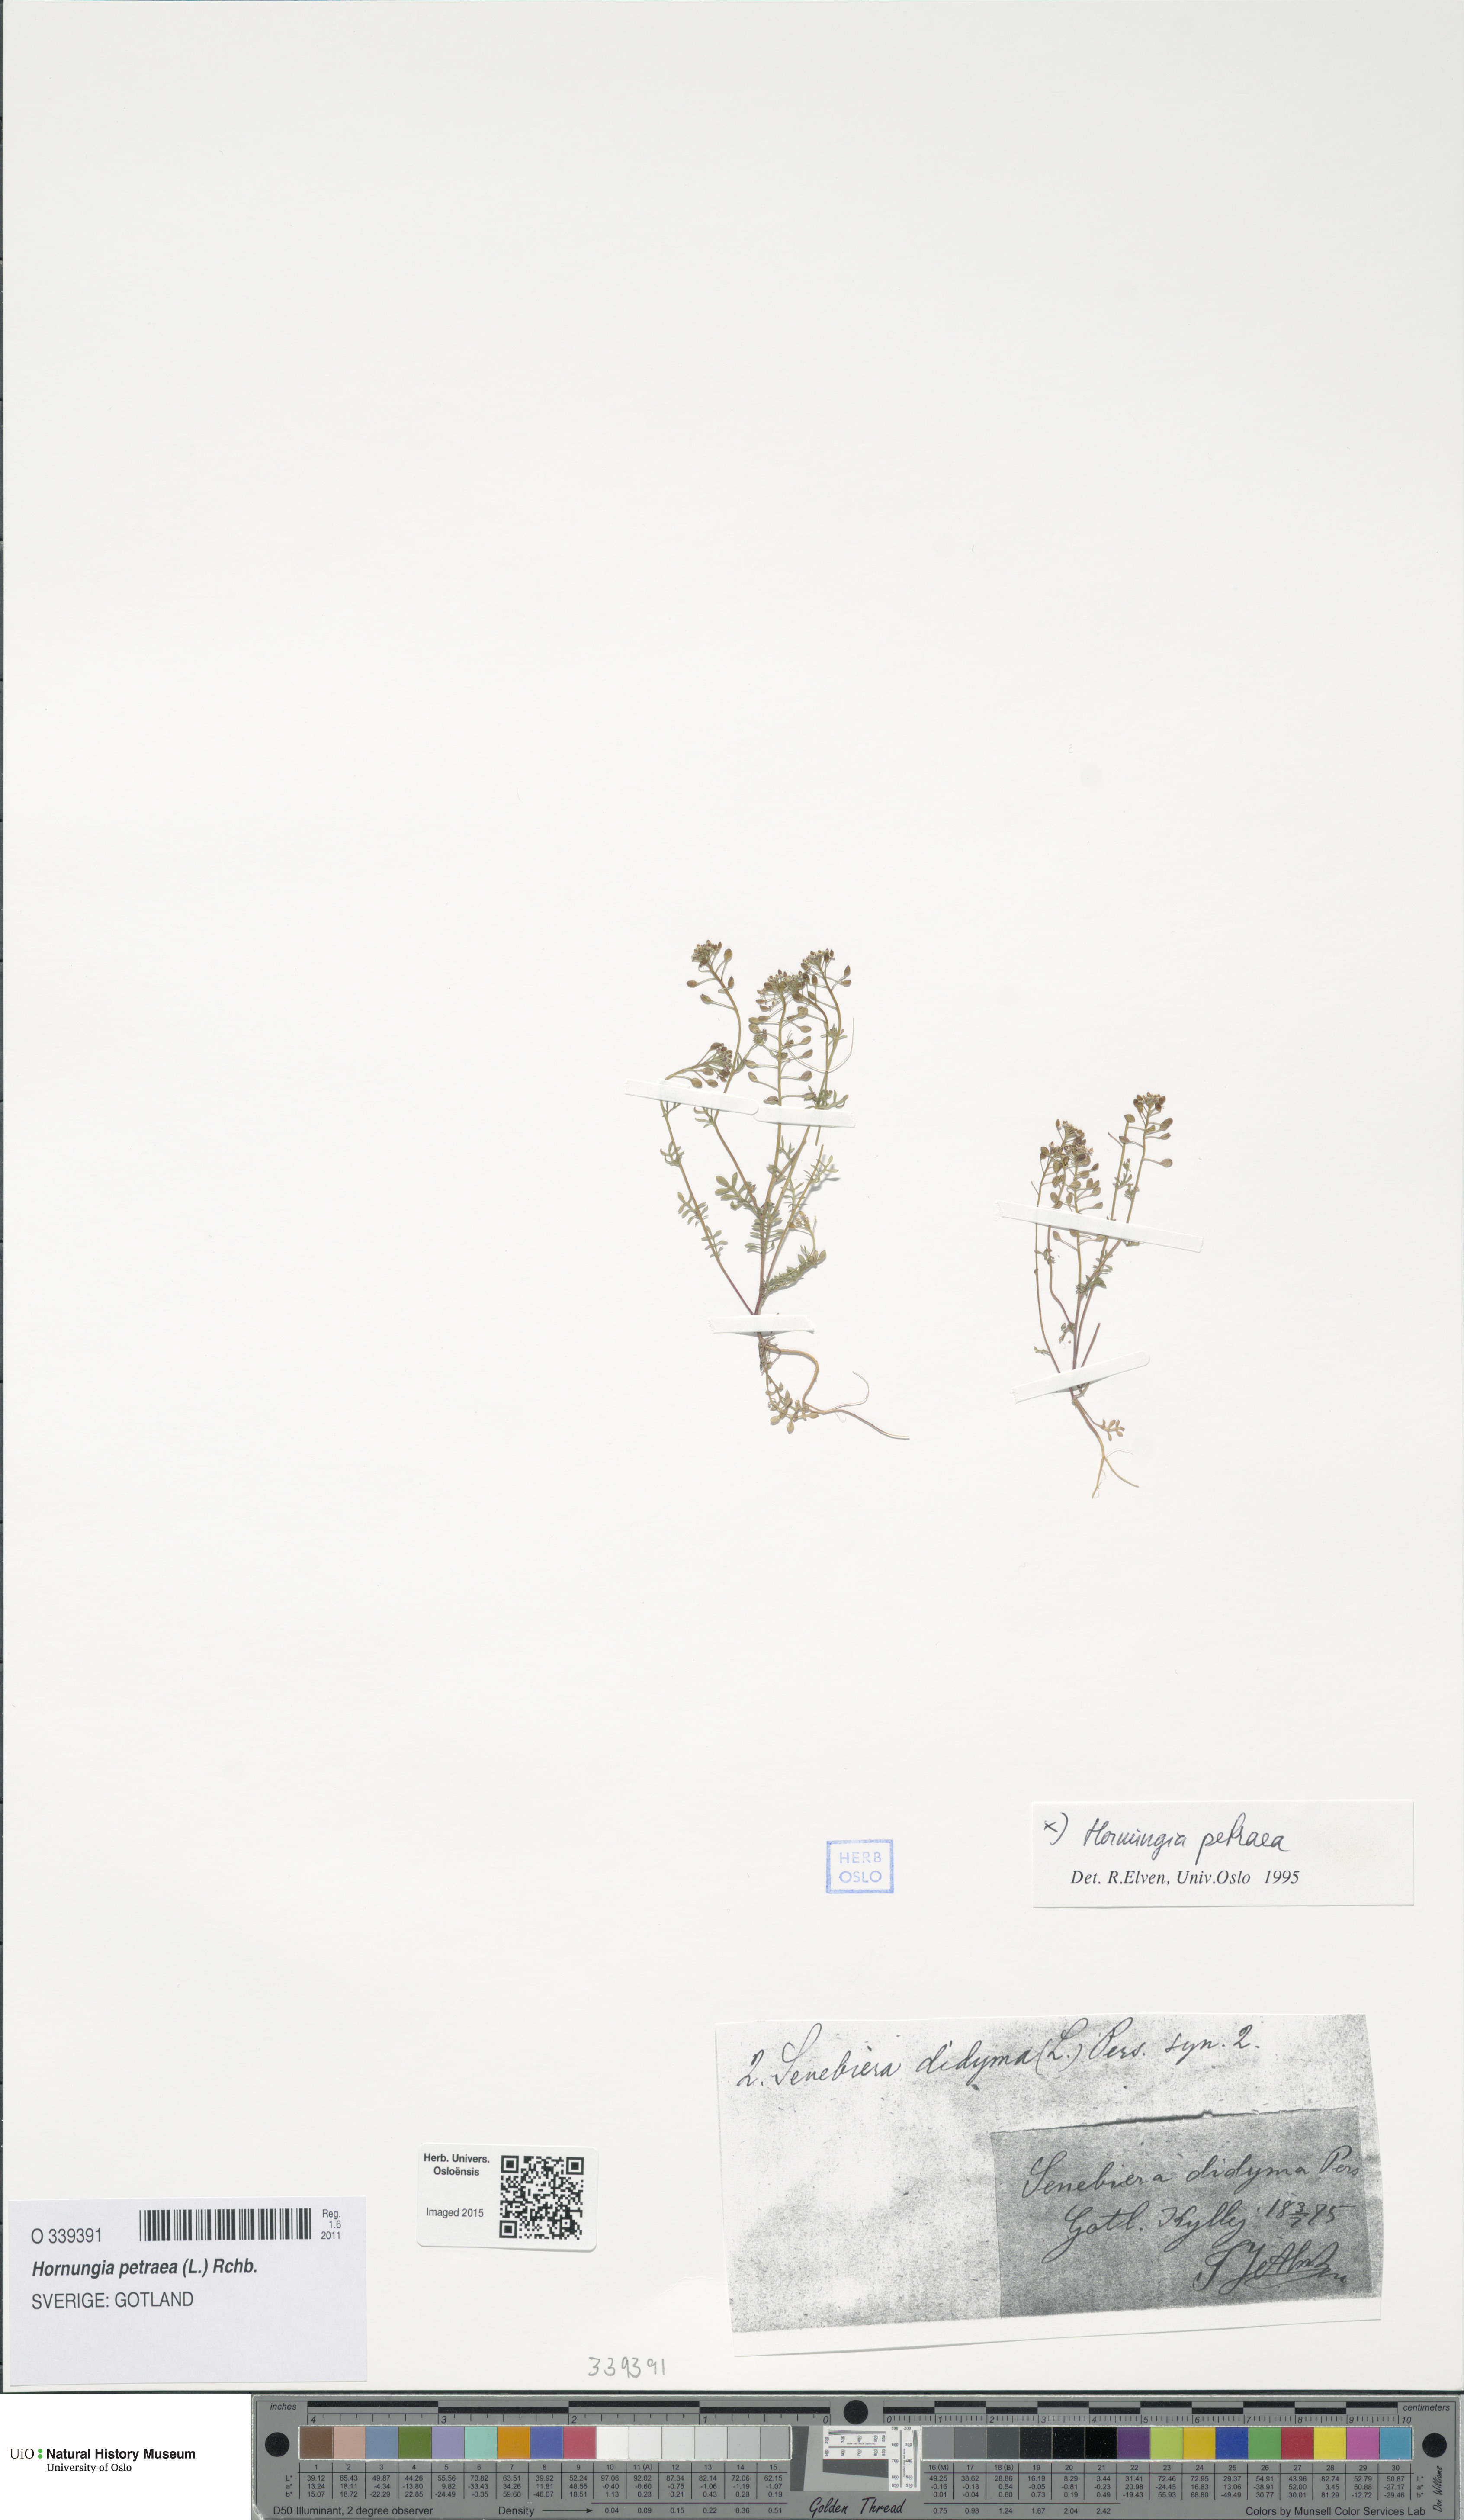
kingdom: Plantae
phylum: Tracheophyta
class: Magnoliopsida
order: Brassicales
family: Brassicaceae
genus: Hornungia
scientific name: Hornungia petraea
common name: Hutchinsia
